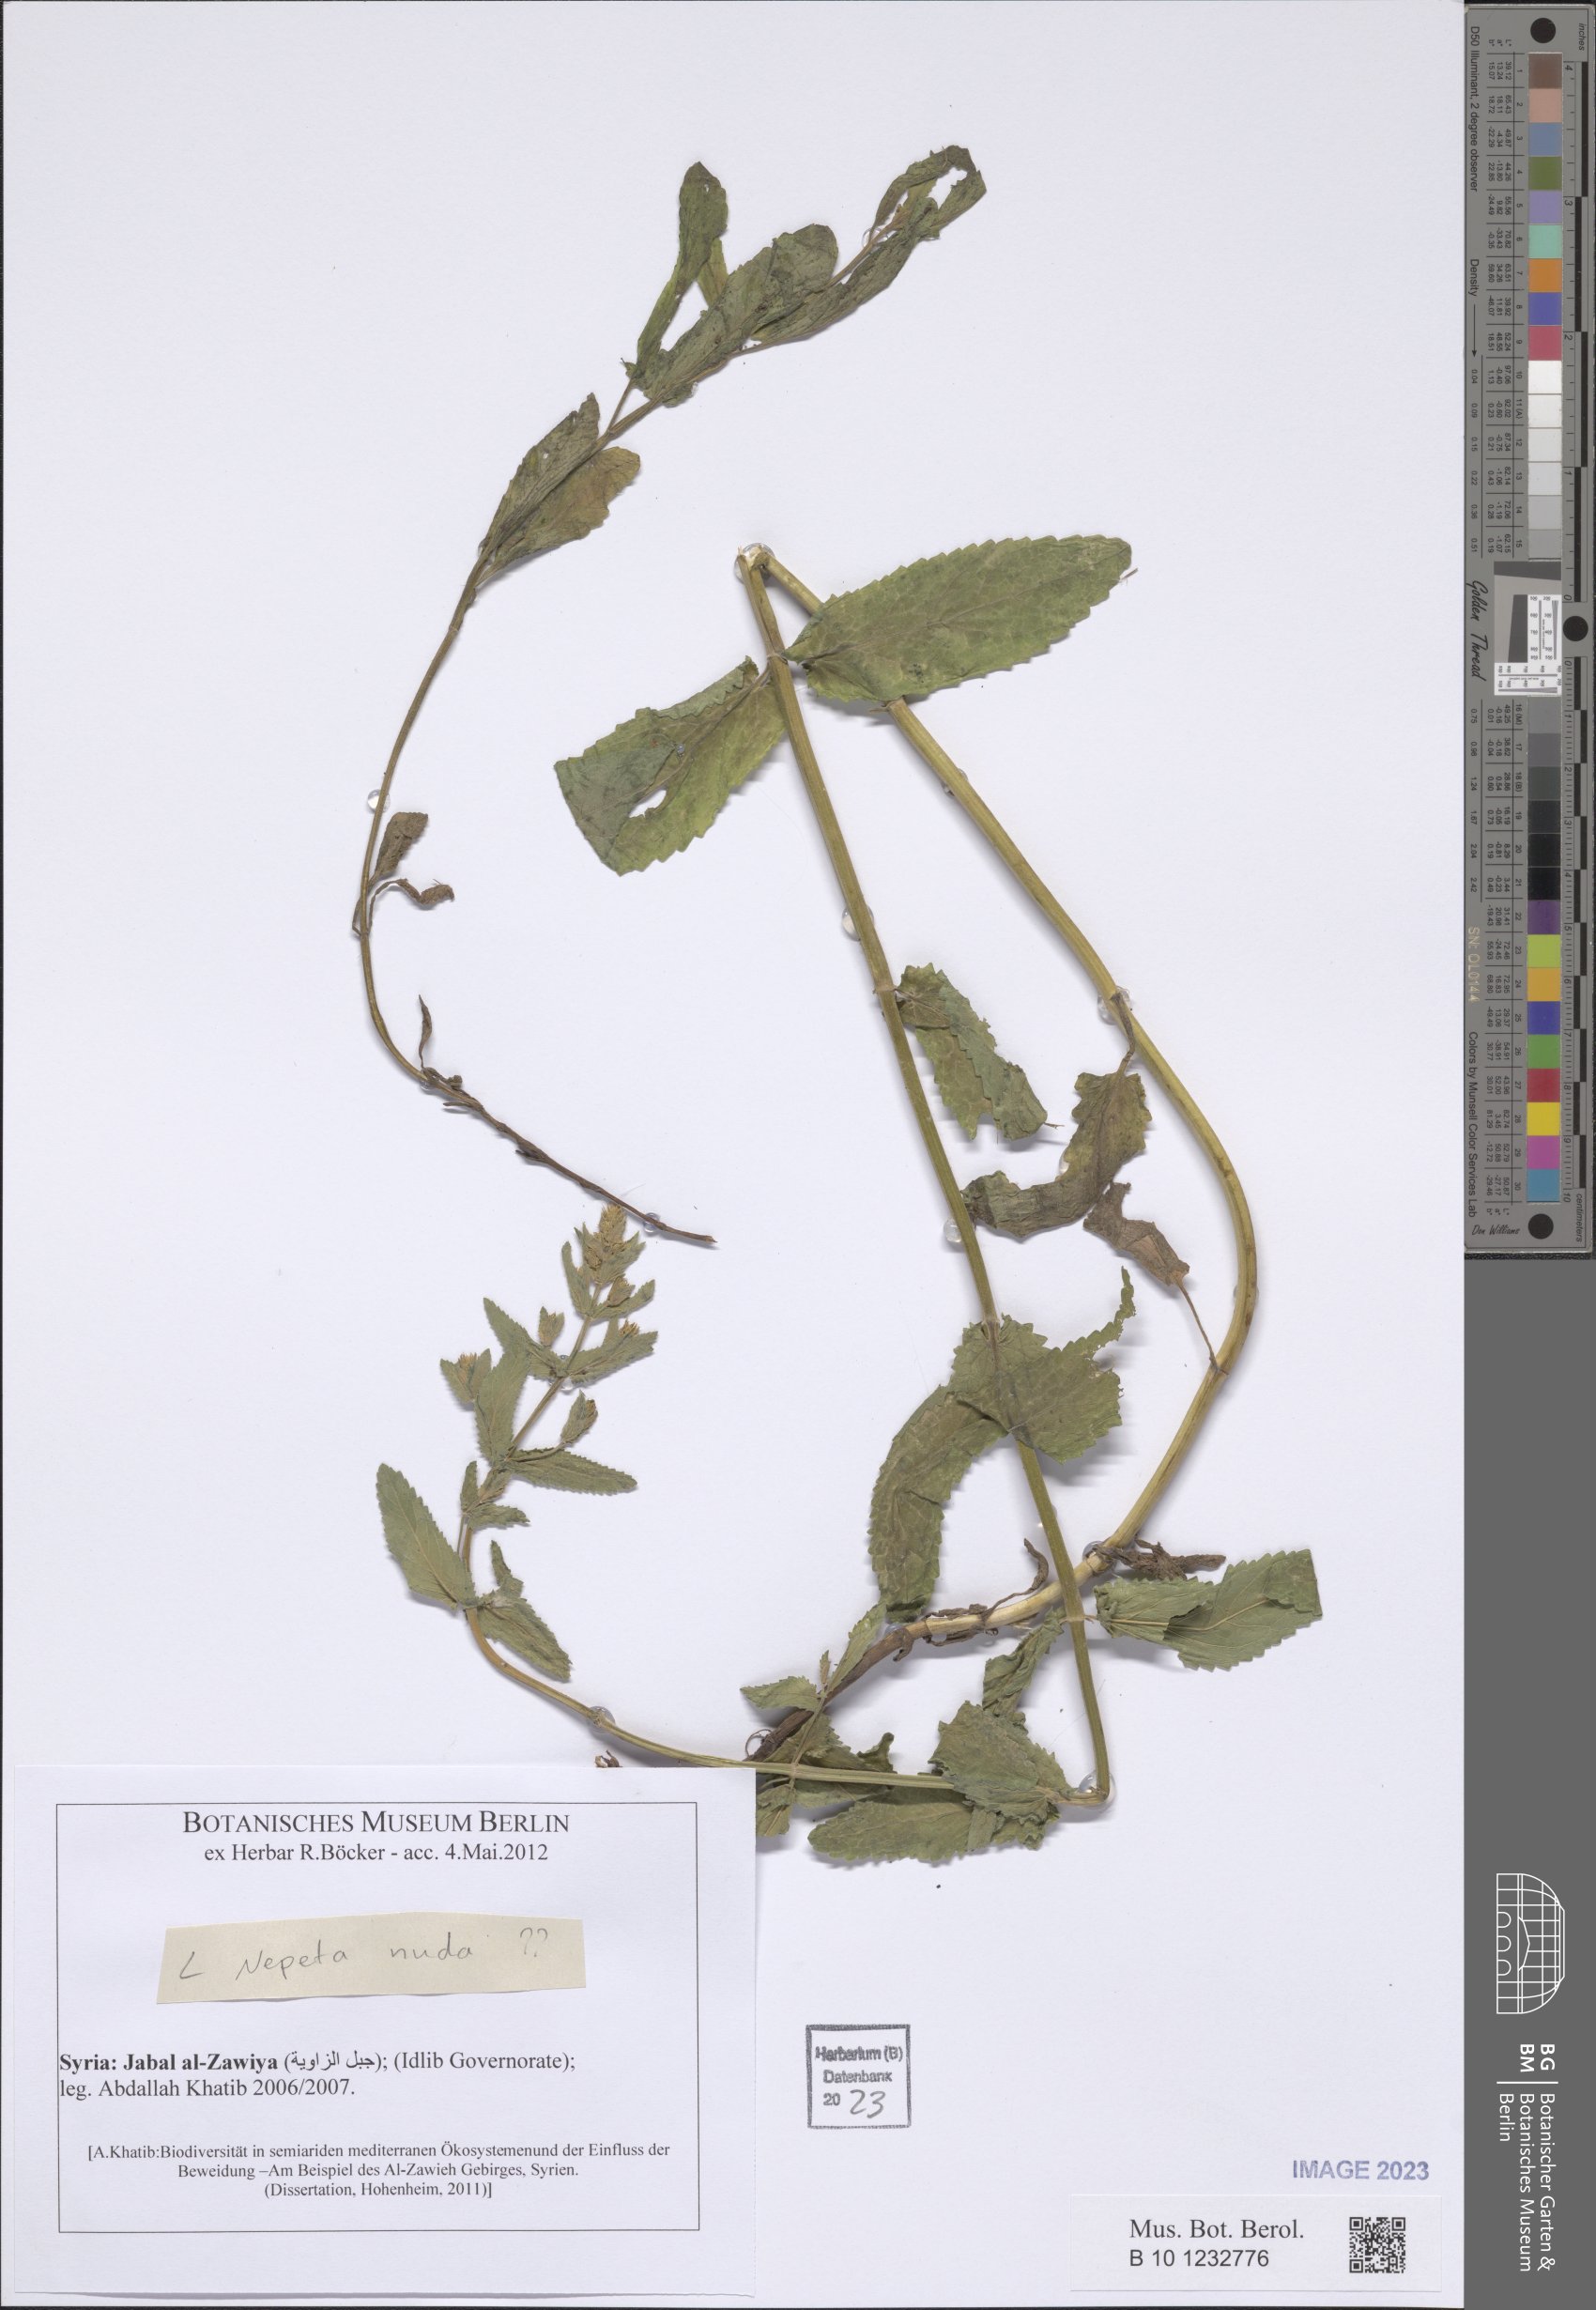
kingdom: Plantae
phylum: Tracheophyta
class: Magnoliopsida
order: Lamiales
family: Lamiaceae
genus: Nepeta
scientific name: Nepeta nuda
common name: Hairless catmint
